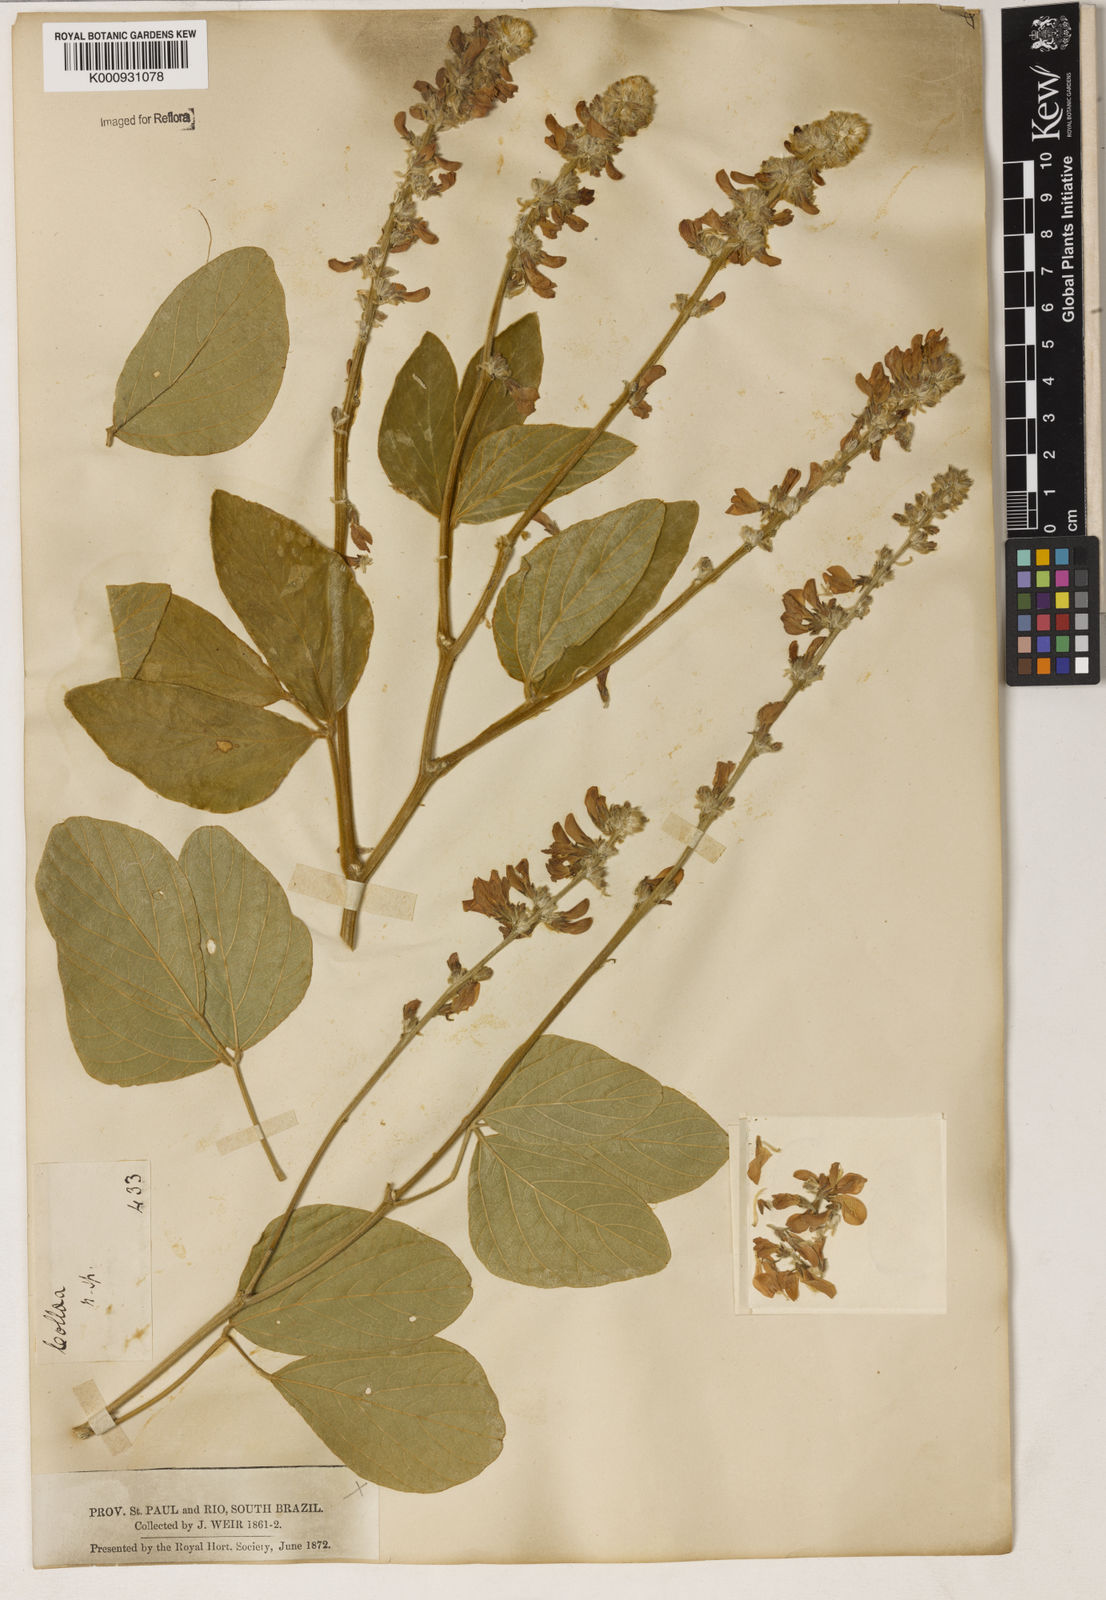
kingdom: Plantae
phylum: Tracheophyta
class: Magnoliopsida
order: Fabales
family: Fabaceae
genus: Calopogonium
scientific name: Calopogonium caeruleum
